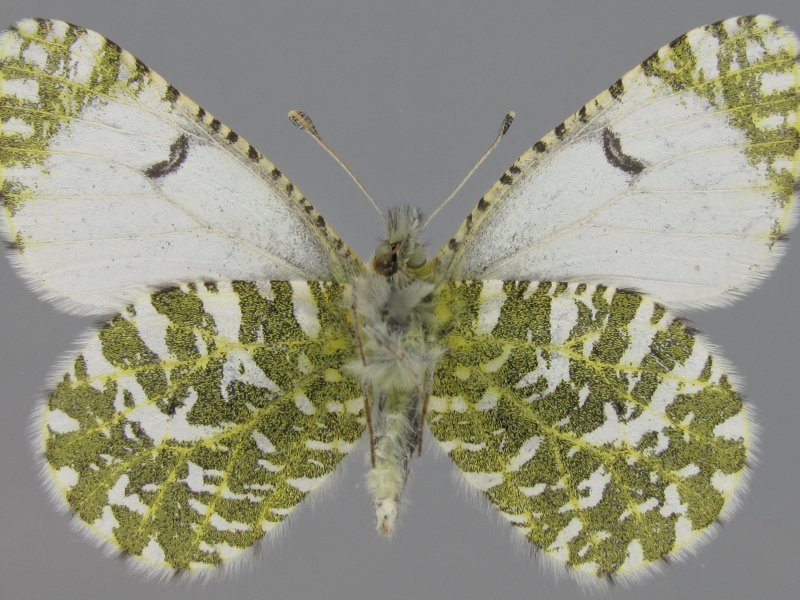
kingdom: Animalia
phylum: Arthropoda
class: Insecta
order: Lepidoptera
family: Pieridae
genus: Euchloe
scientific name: Euchloe creusa
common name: Northern Marble
